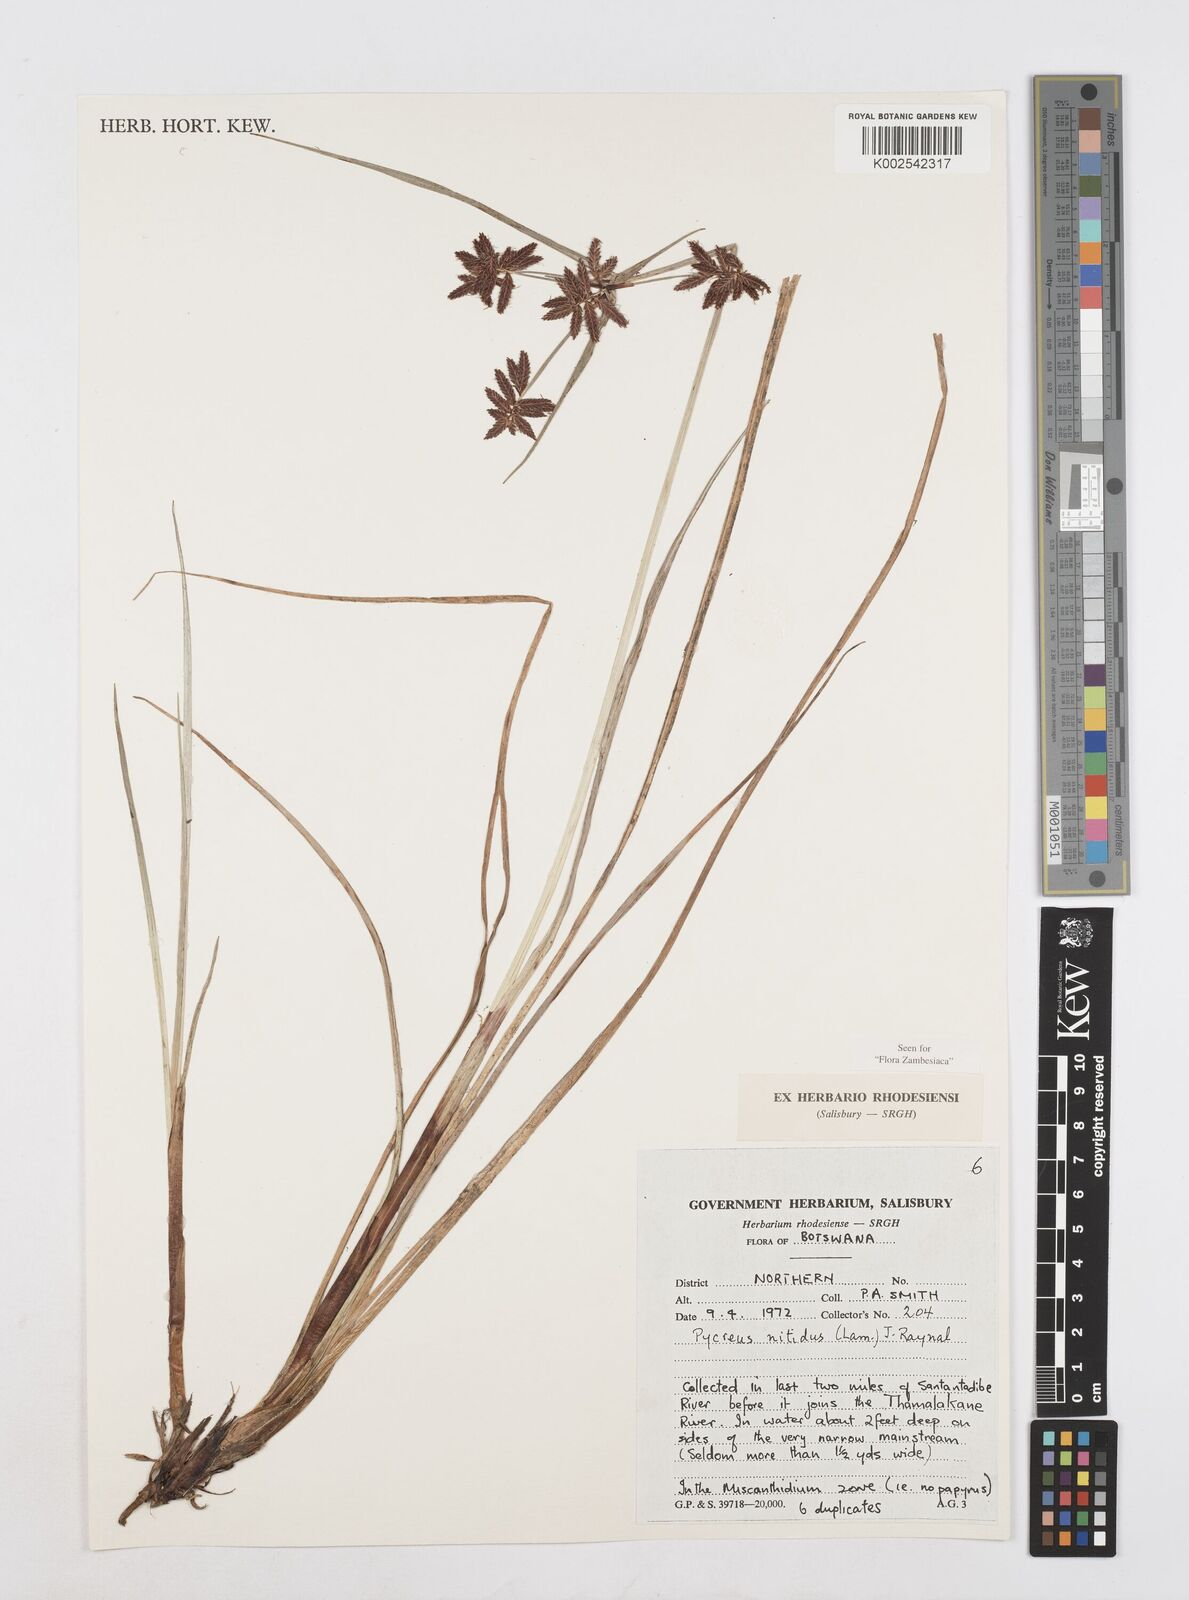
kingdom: Plantae
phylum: Tracheophyta
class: Liliopsida
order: Poales
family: Cyperaceae
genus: Cyperus
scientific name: Cyperus nitidus
